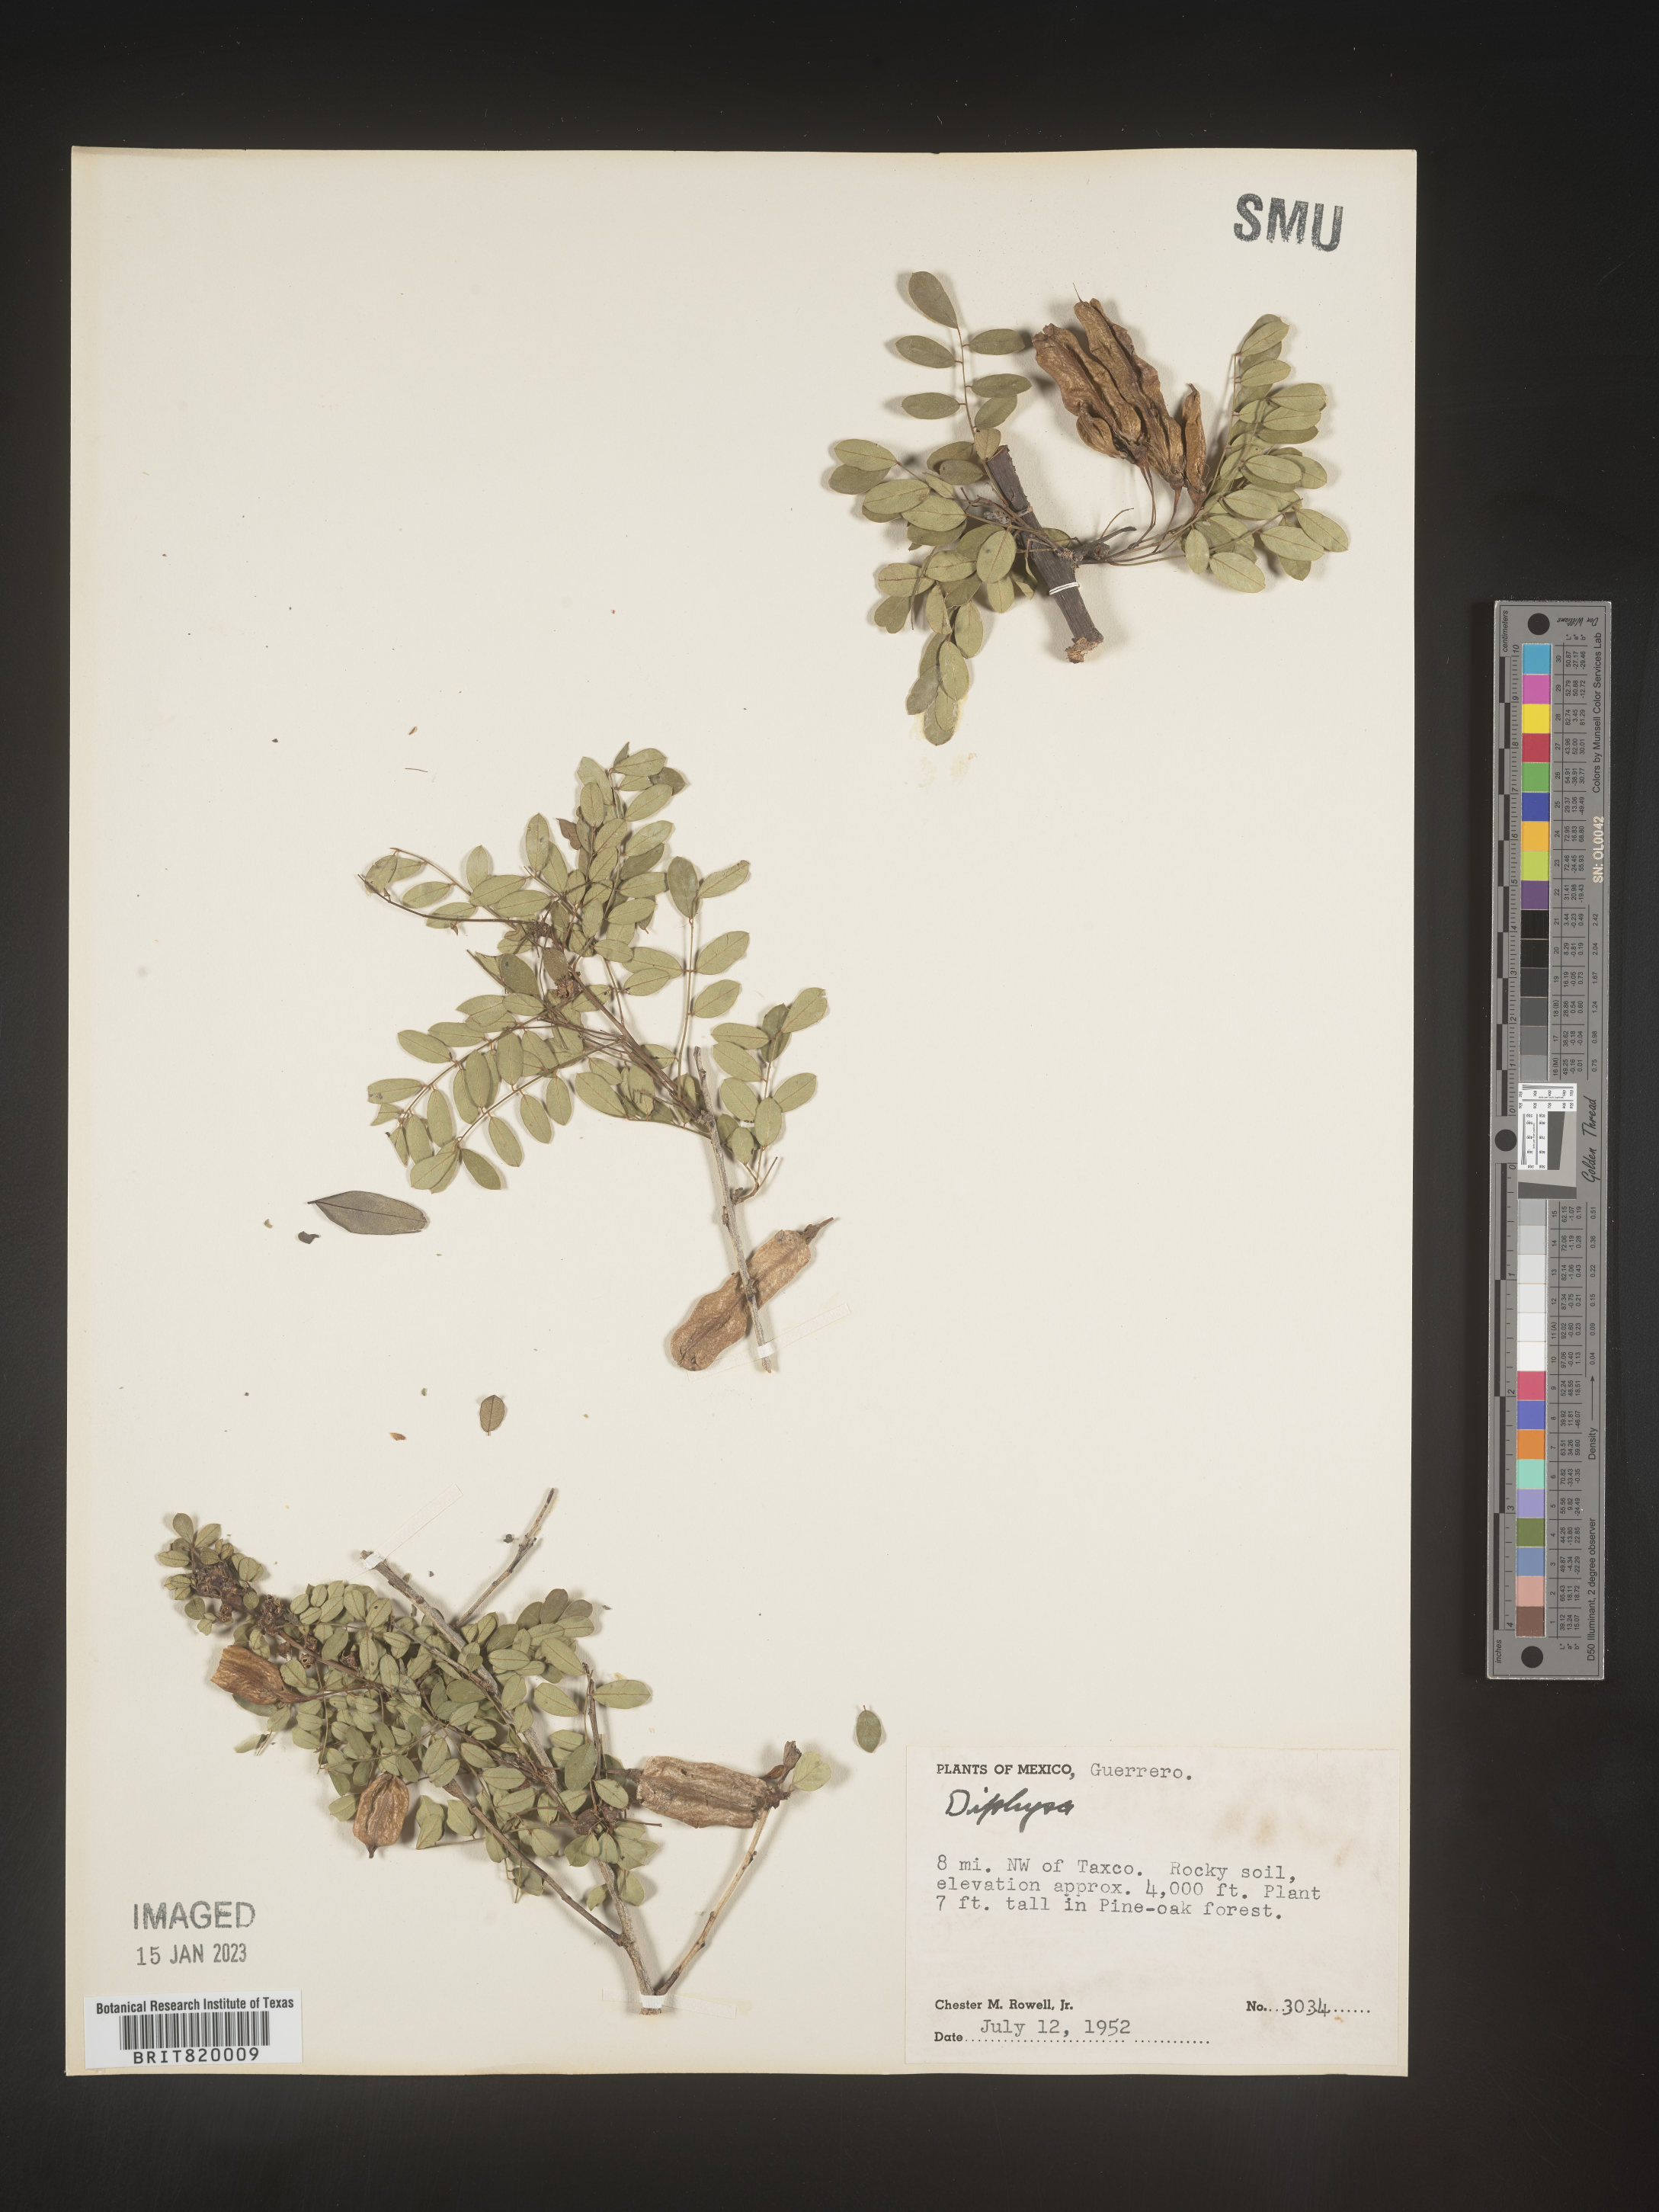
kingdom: Plantae
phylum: Tracheophyta
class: Magnoliopsida
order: Fabales
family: Fabaceae
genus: Diphysa
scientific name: Diphysa
